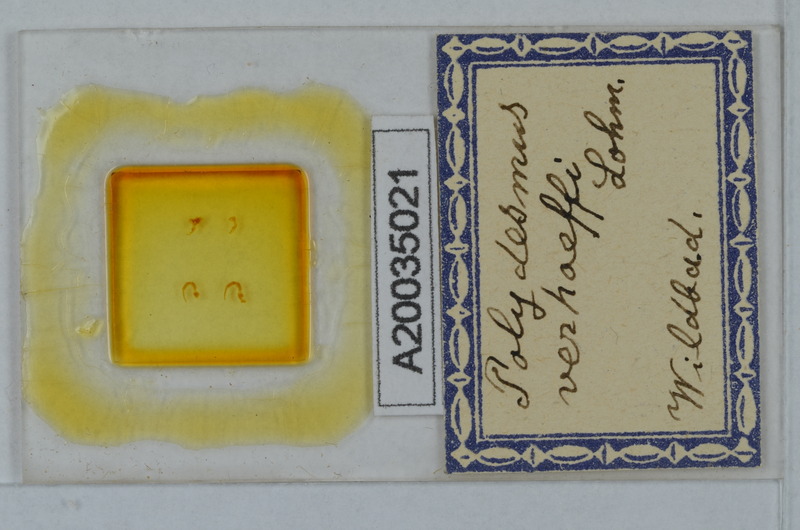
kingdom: Animalia
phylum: Arthropoda
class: Diplopoda
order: Polydesmida
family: Polydesmidae
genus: Polydesmus
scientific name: Polydesmus angustus
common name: Flat millipede
